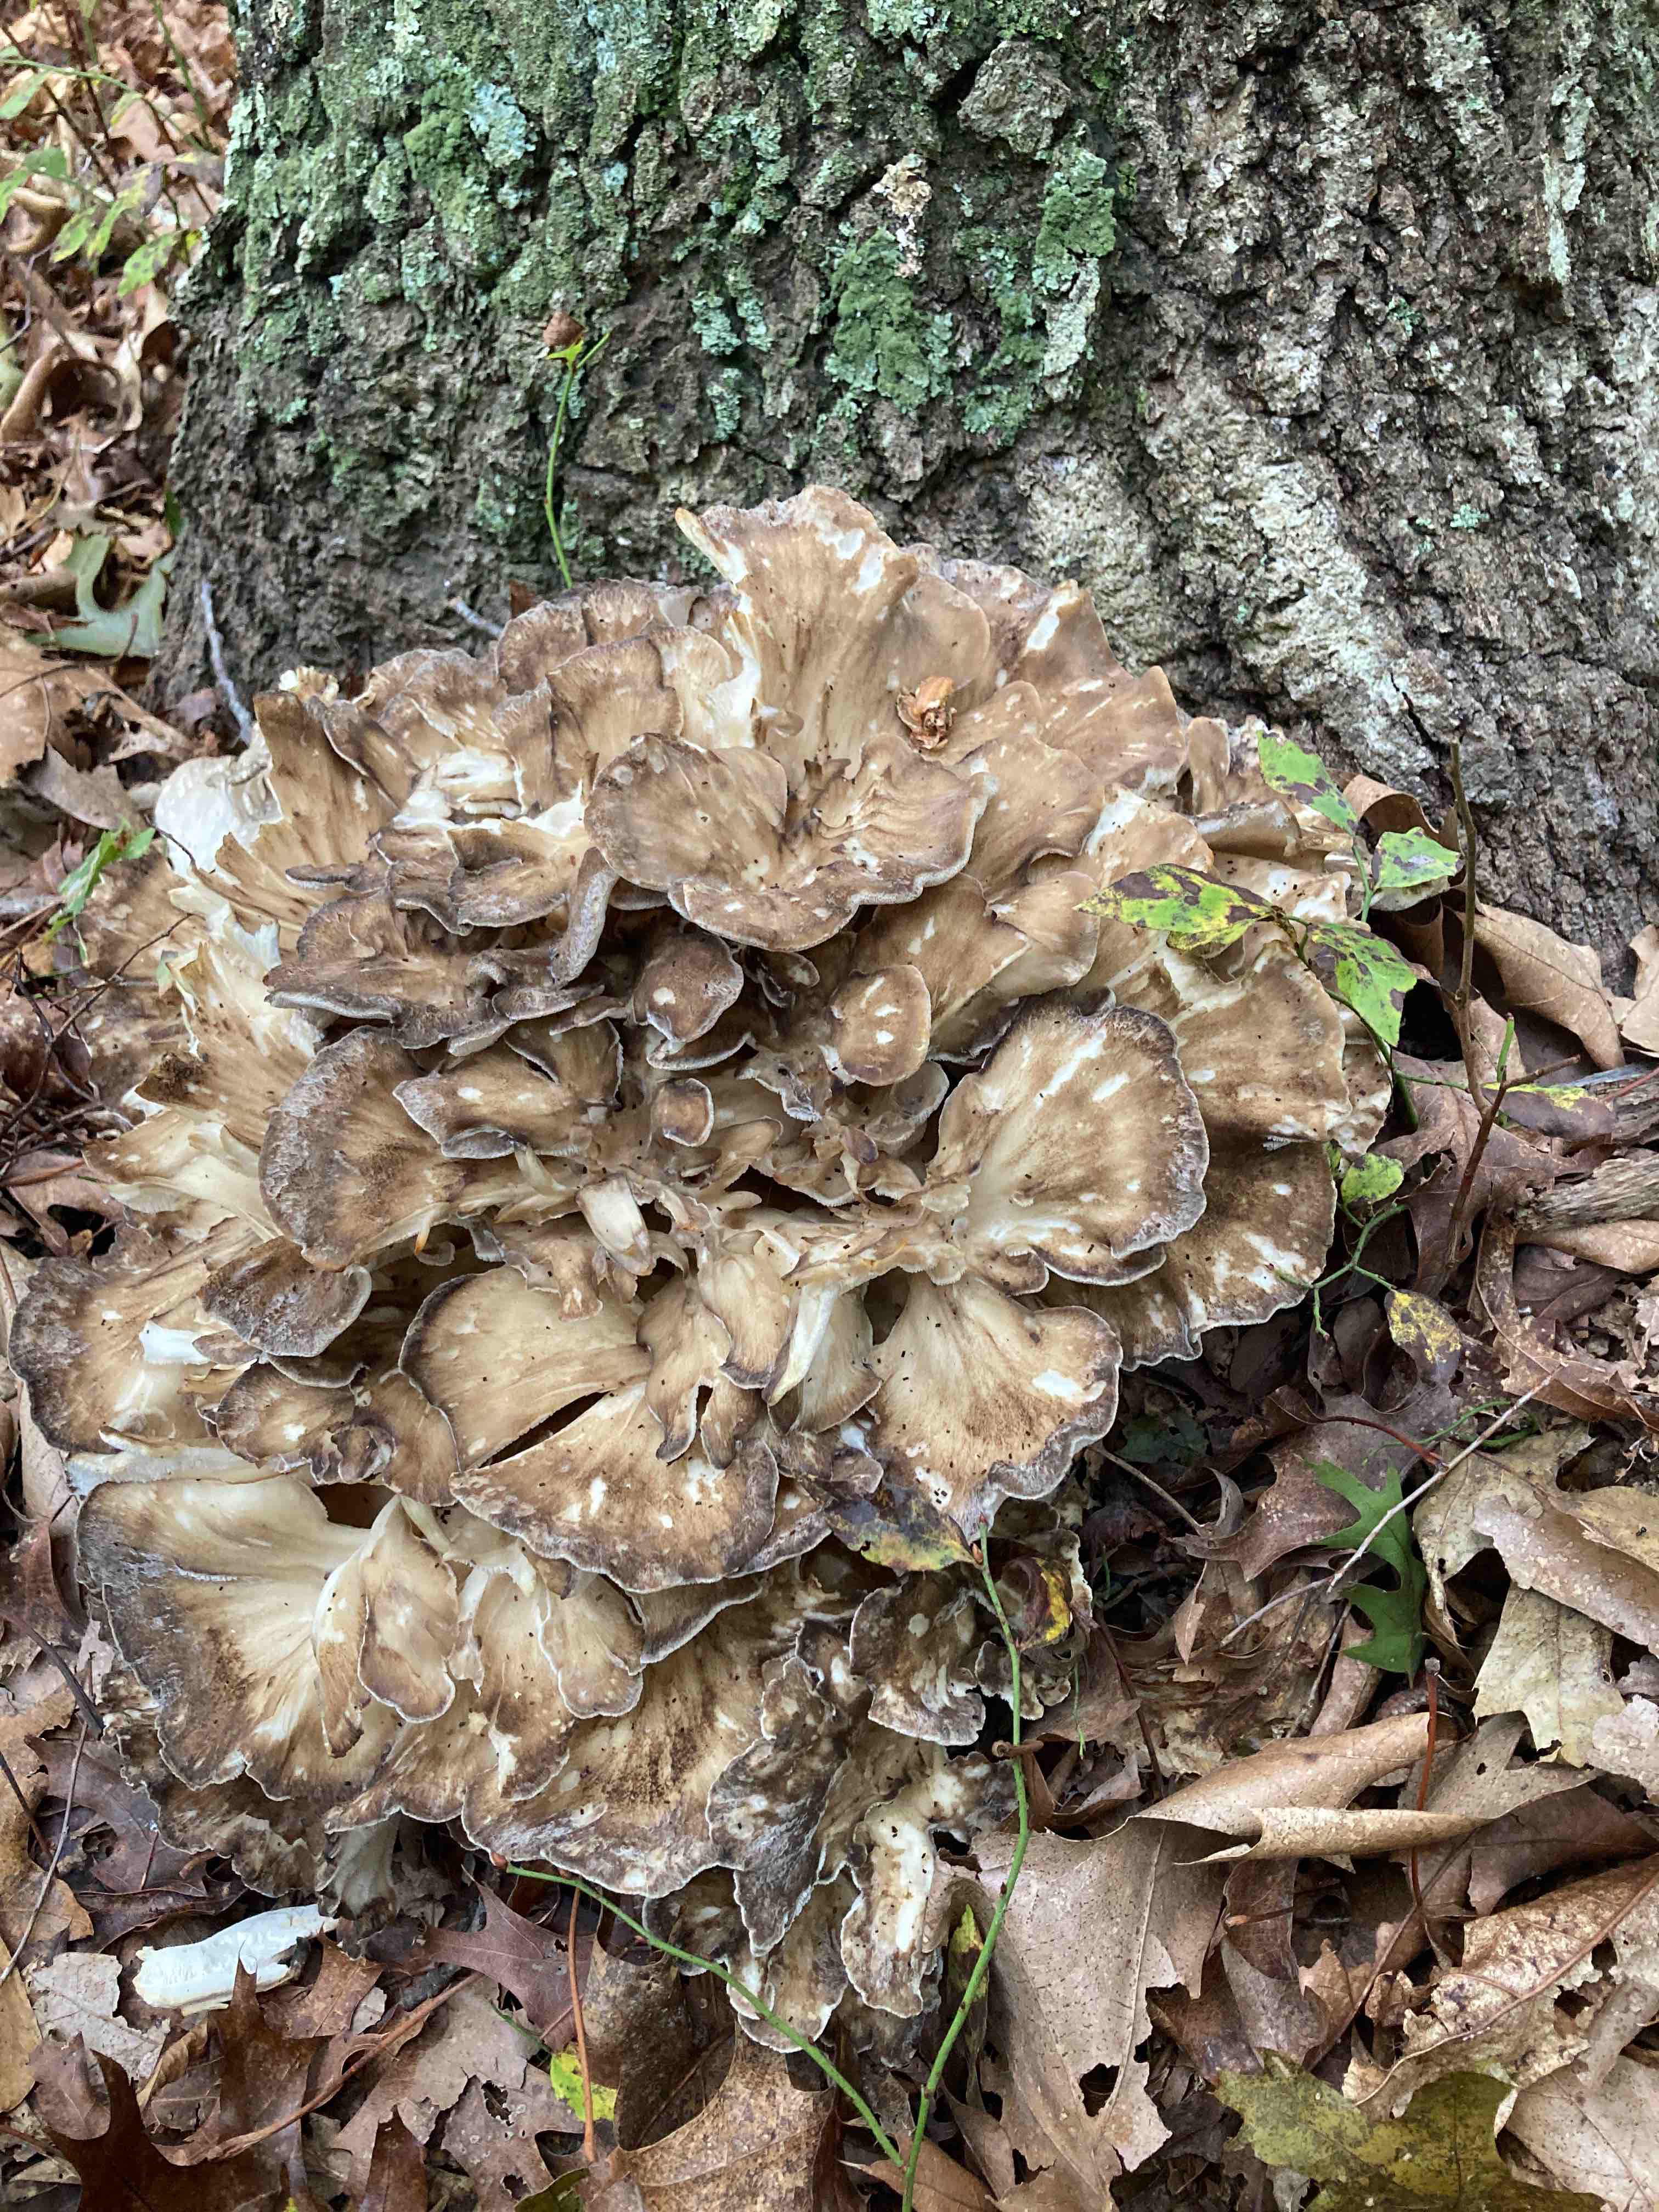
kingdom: Fungi
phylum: Basidiomycota
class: Agaricomycetes
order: Polyporales
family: Grifolaceae
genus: Grifola
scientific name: Grifola frondosa
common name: tueporesvamp
